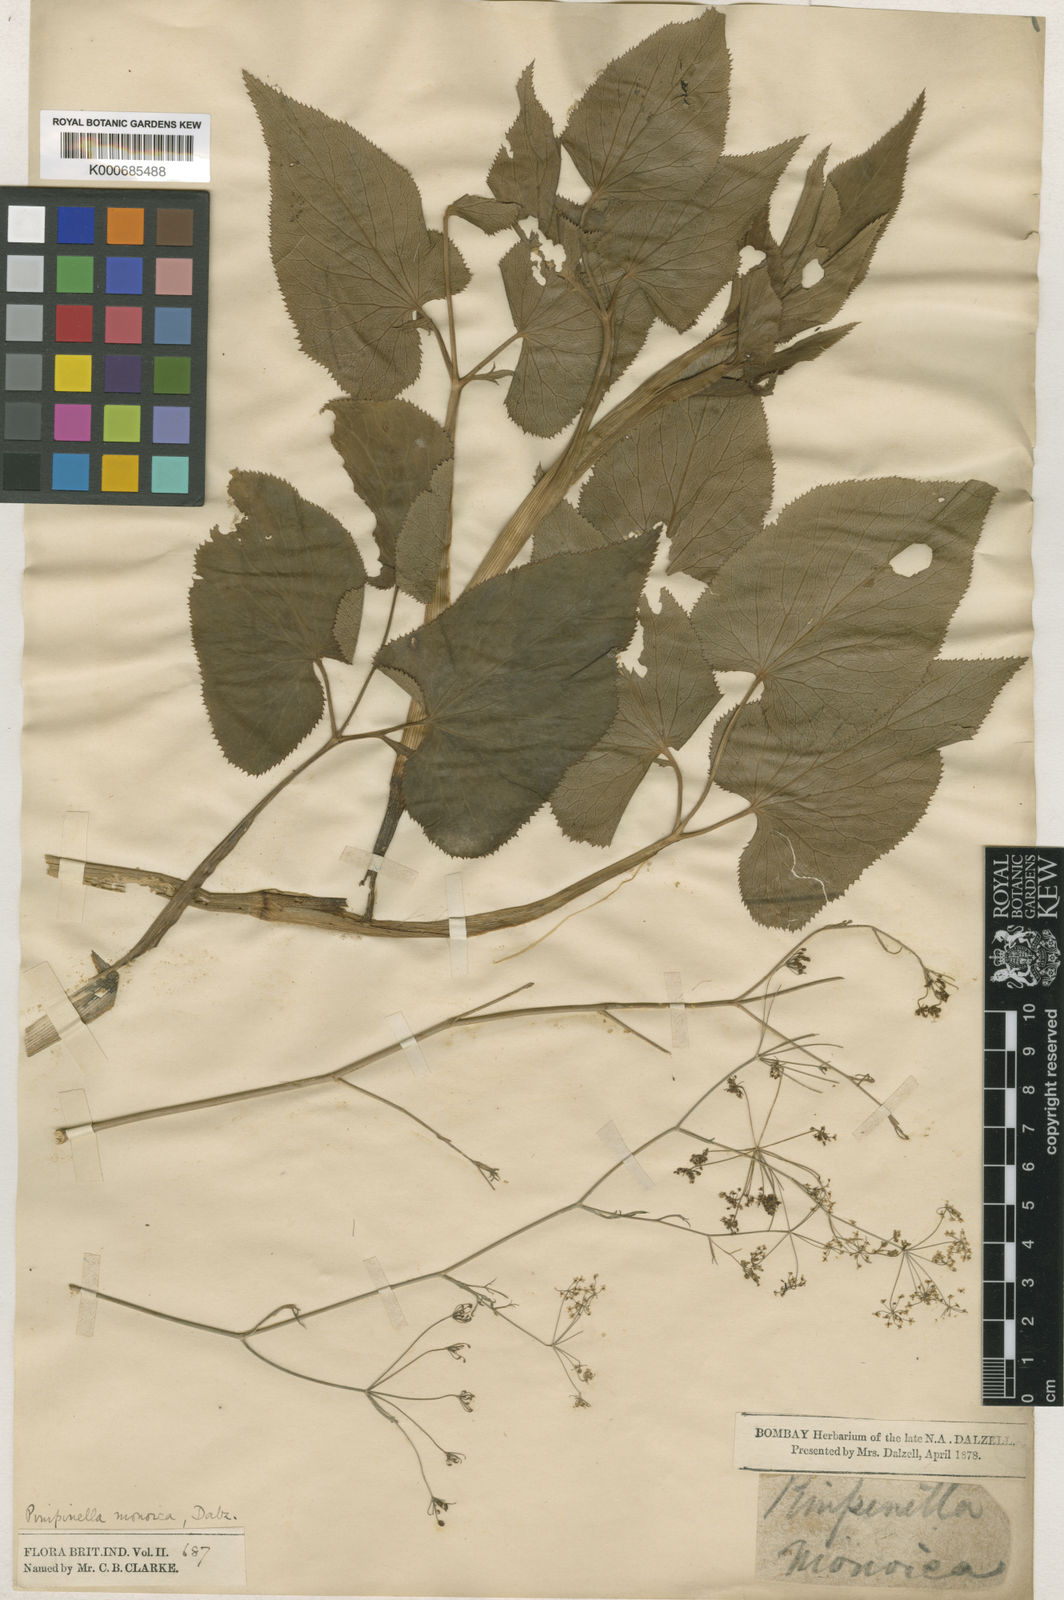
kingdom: Plantae
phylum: Tracheophyta
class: Magnoliopsida
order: Apiales
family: Apiaceae
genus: Pimpinella
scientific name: Pimpinella wallichiana
